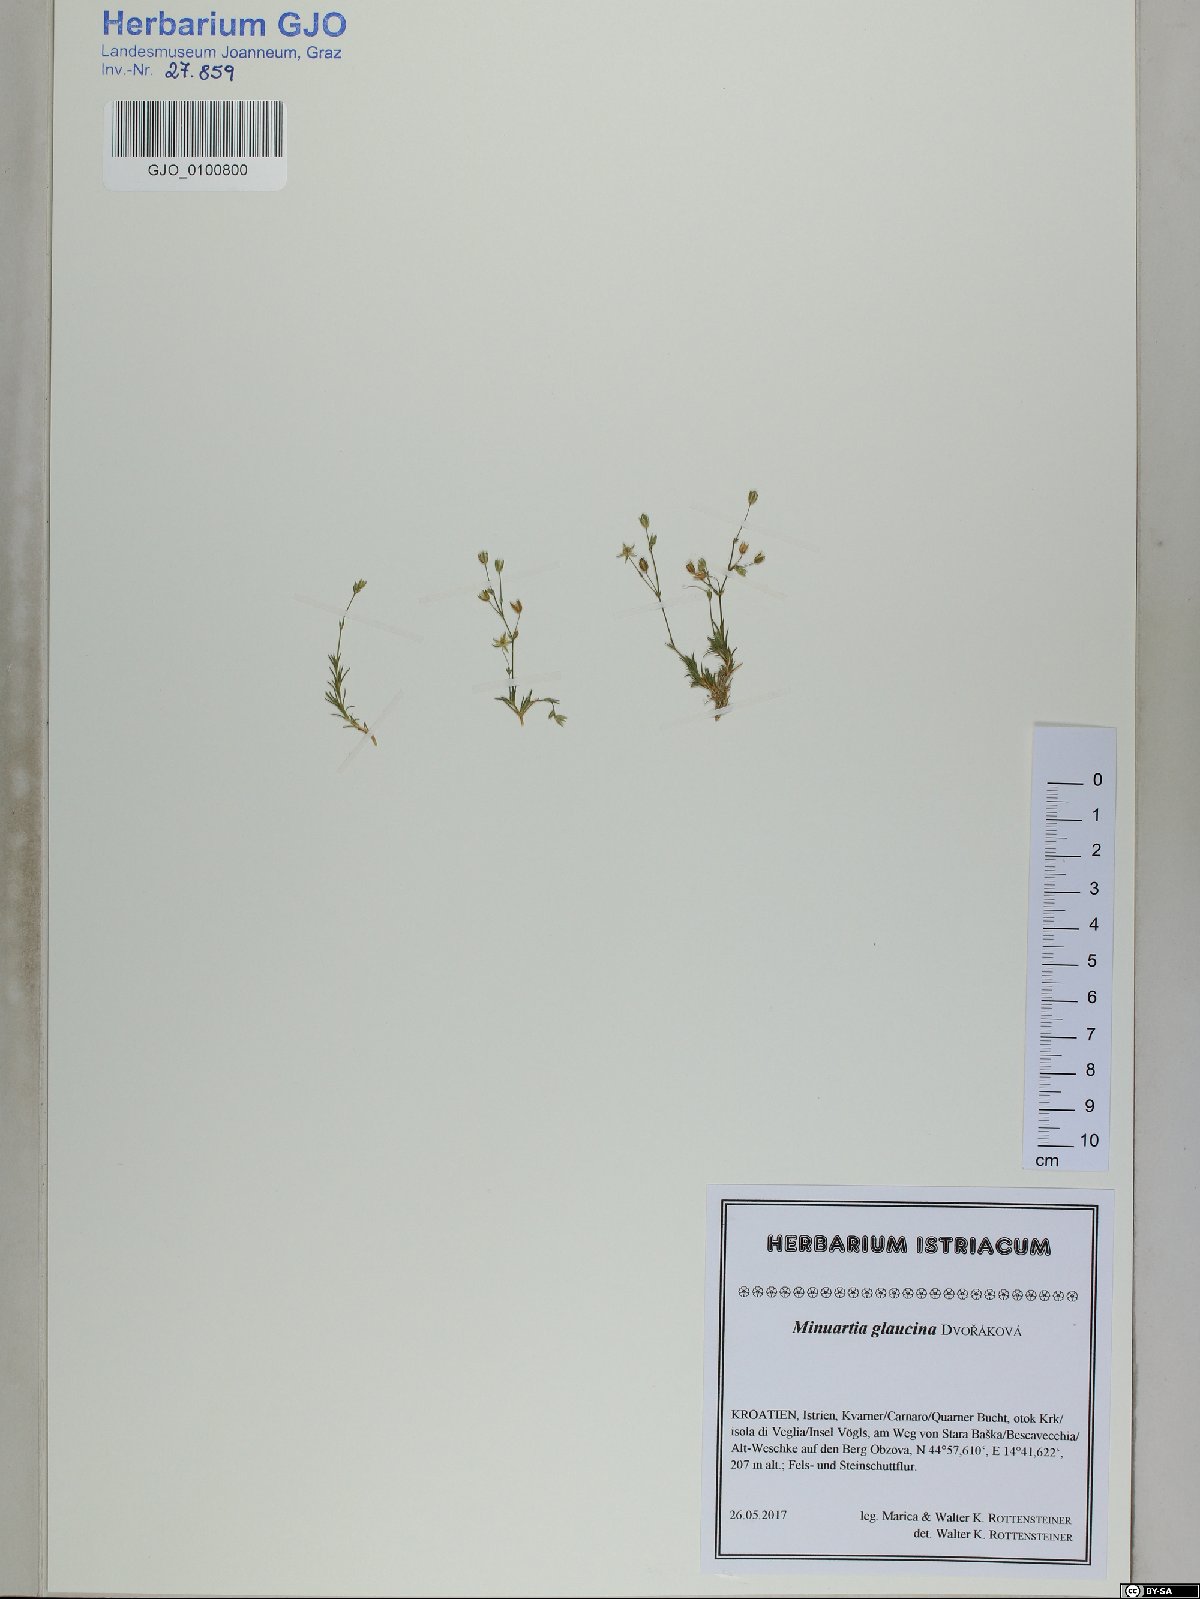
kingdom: Plantae
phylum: Tracheophyta
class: Magnoliopsida
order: Caryophyllales
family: Caryophyllaceae
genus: Sabulina
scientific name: Sabulina glaucina
